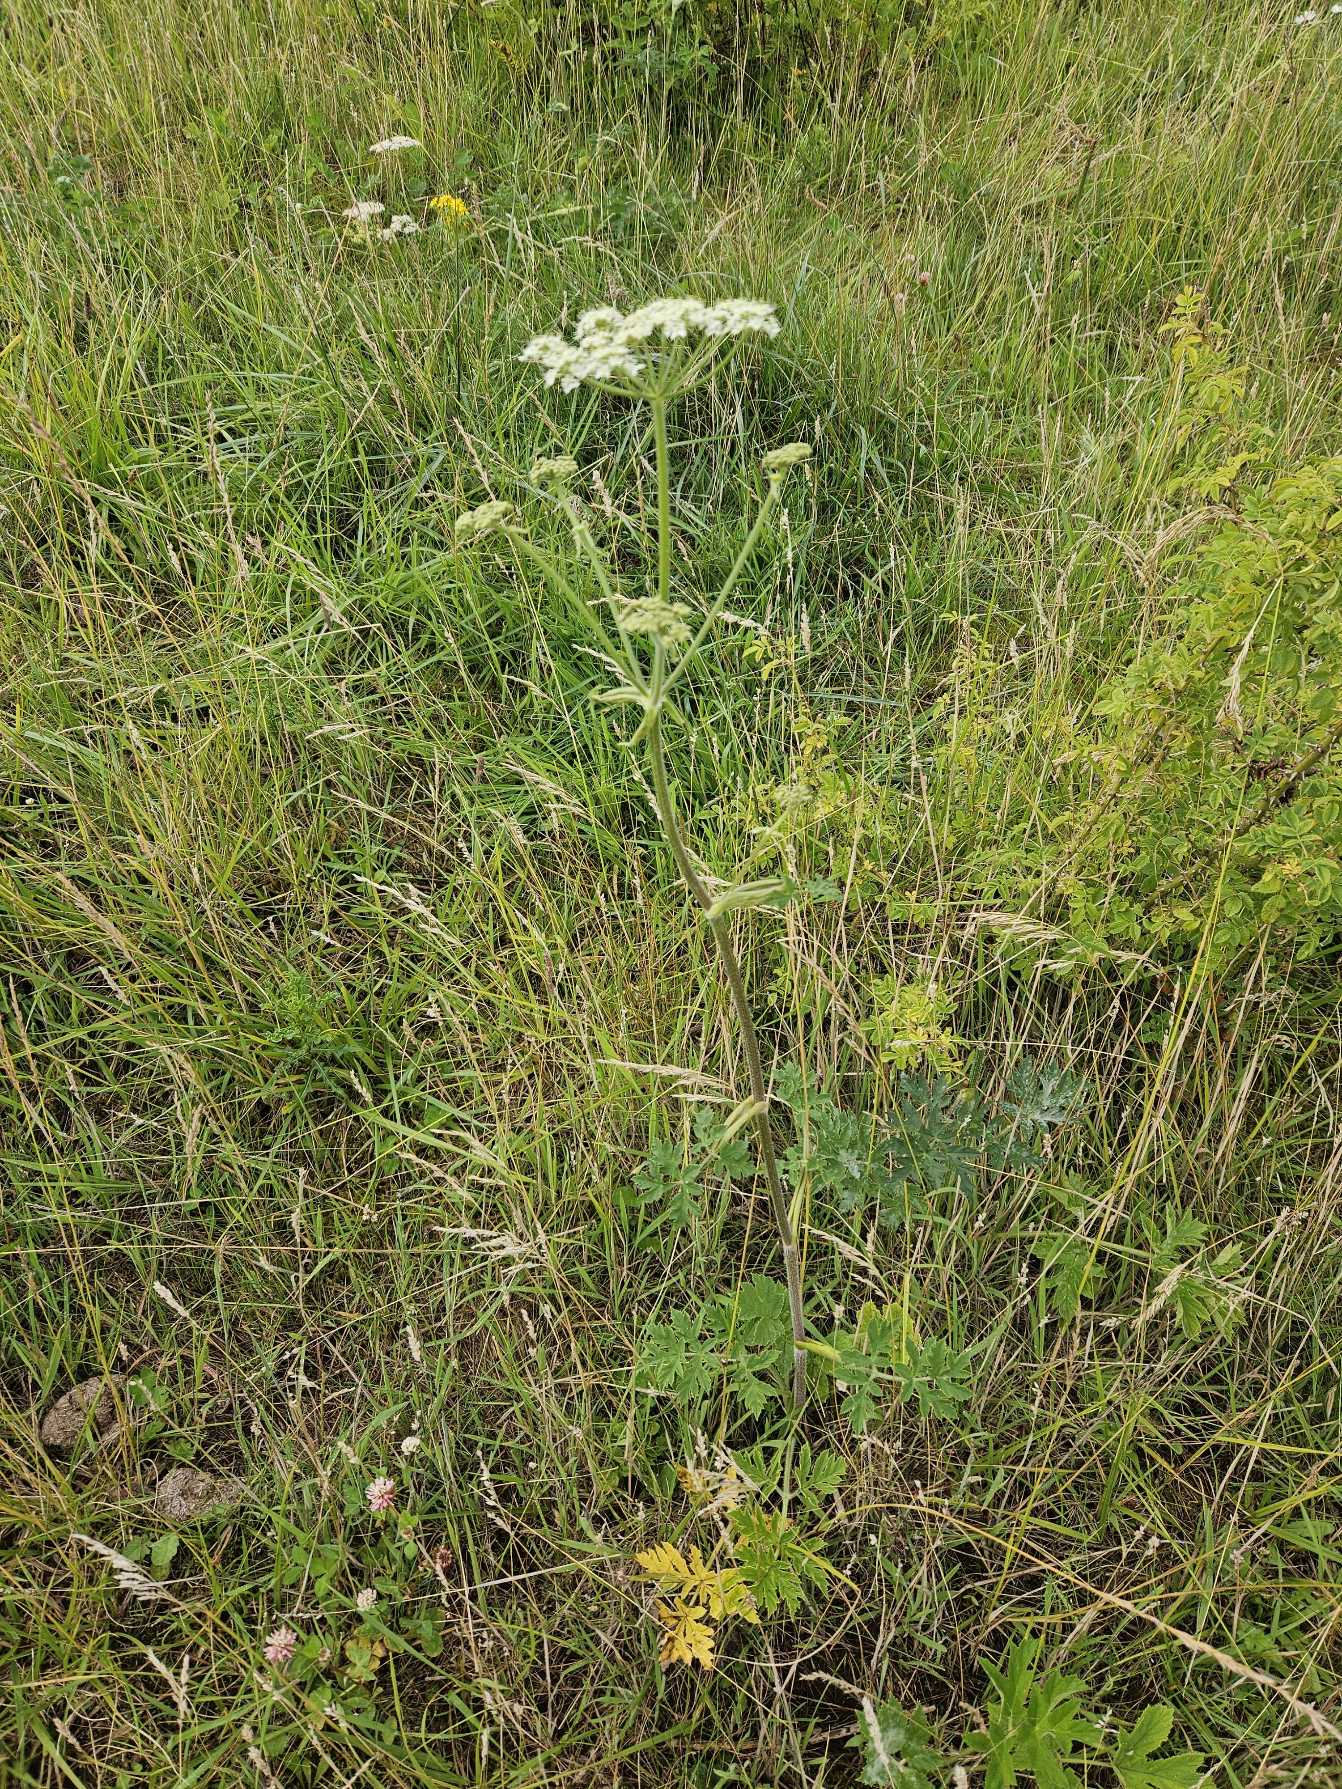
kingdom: Plantae
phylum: Tracheophyta
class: Magnoliopsida
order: Apiales
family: Apiaceae
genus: Heracleum
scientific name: Heracleum sphondylium
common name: Almindelig bjørneklo
